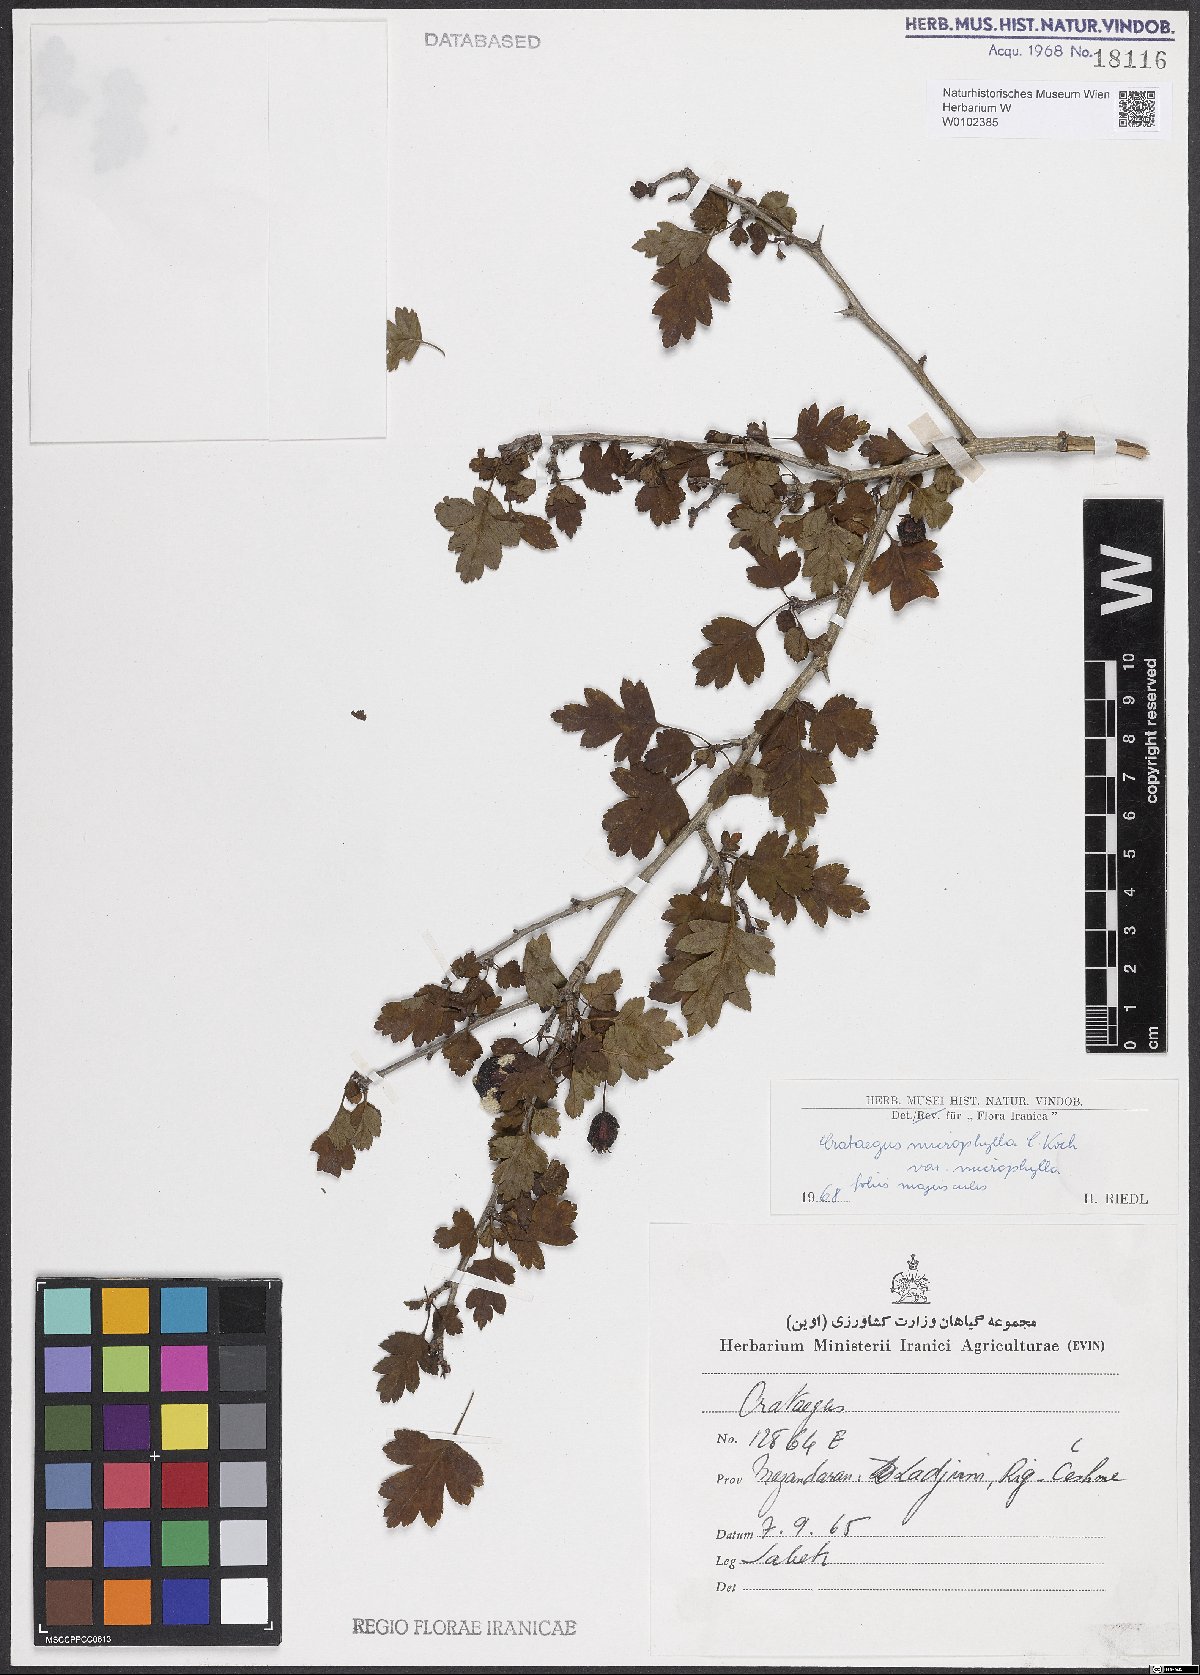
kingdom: Plantae
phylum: Tracheophyta
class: Magnoliopsida
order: Rosales
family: Rosaceae
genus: Crataegus
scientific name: Crataegus microphylla
